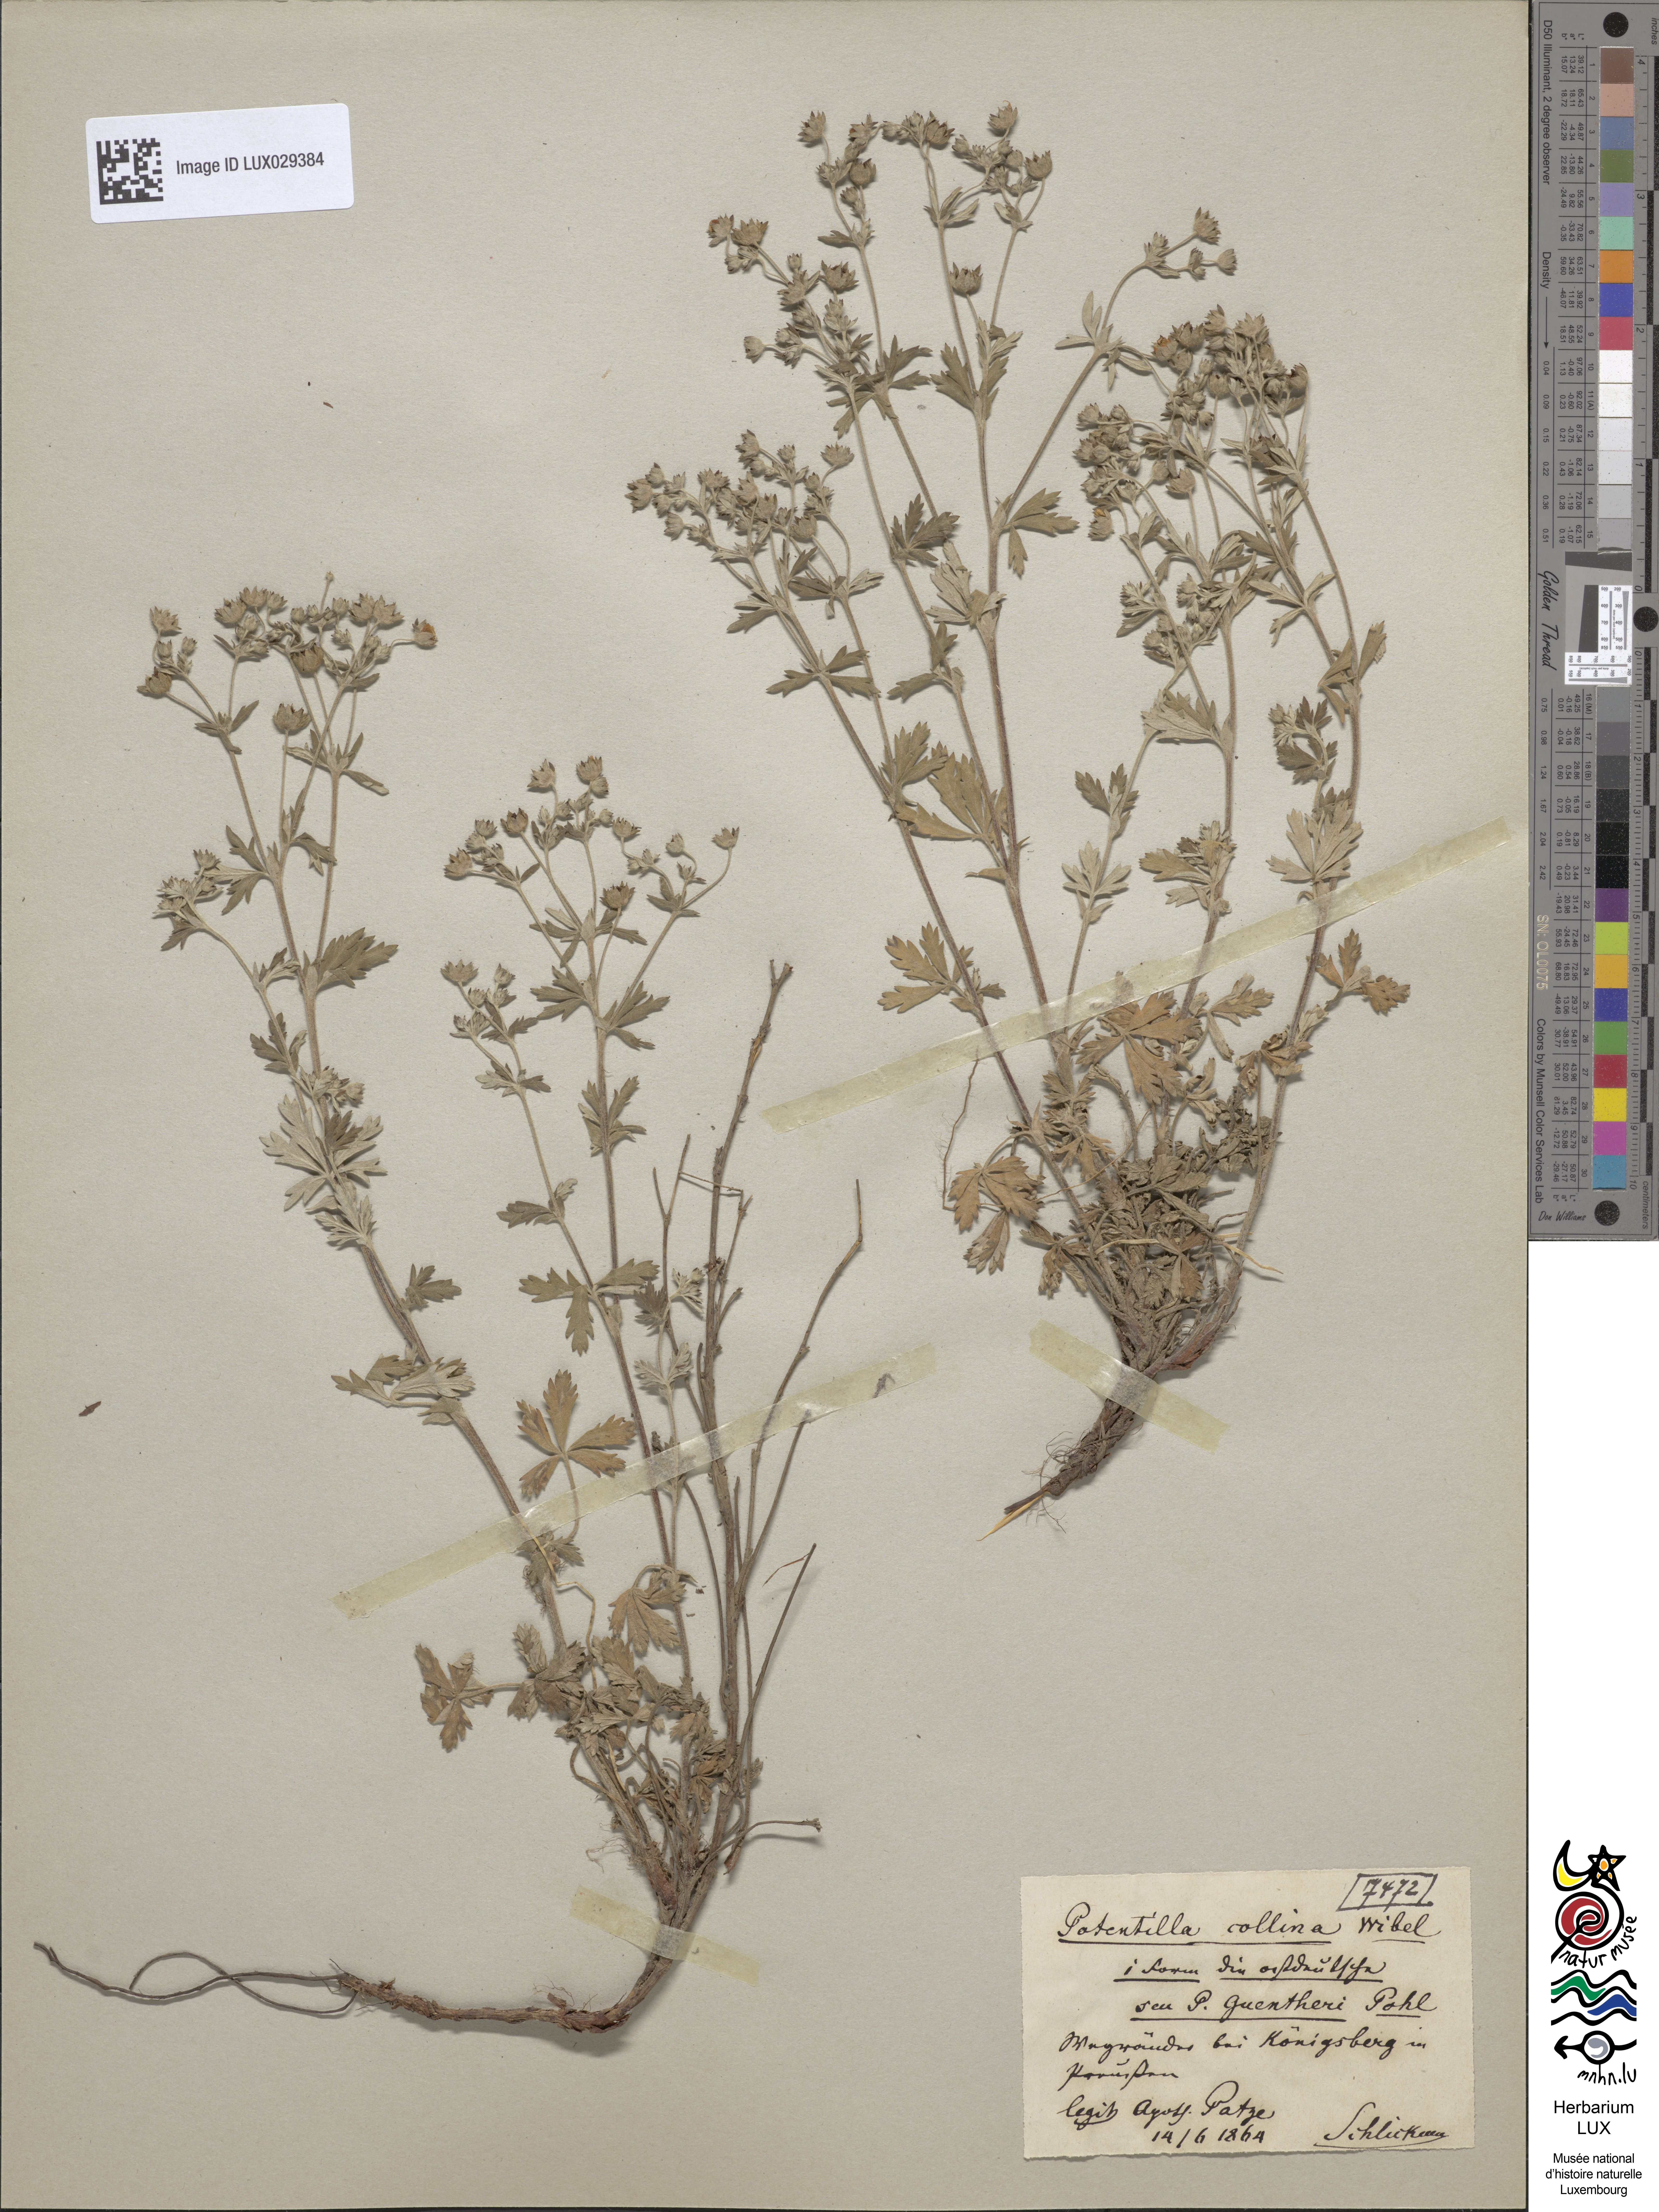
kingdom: Plantae
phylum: Tracheophyta
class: Magnoliopsida
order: Rosales
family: Rosaceae
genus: Potentilla
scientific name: Potentilla collina
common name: Palmleaf cinquefoil
